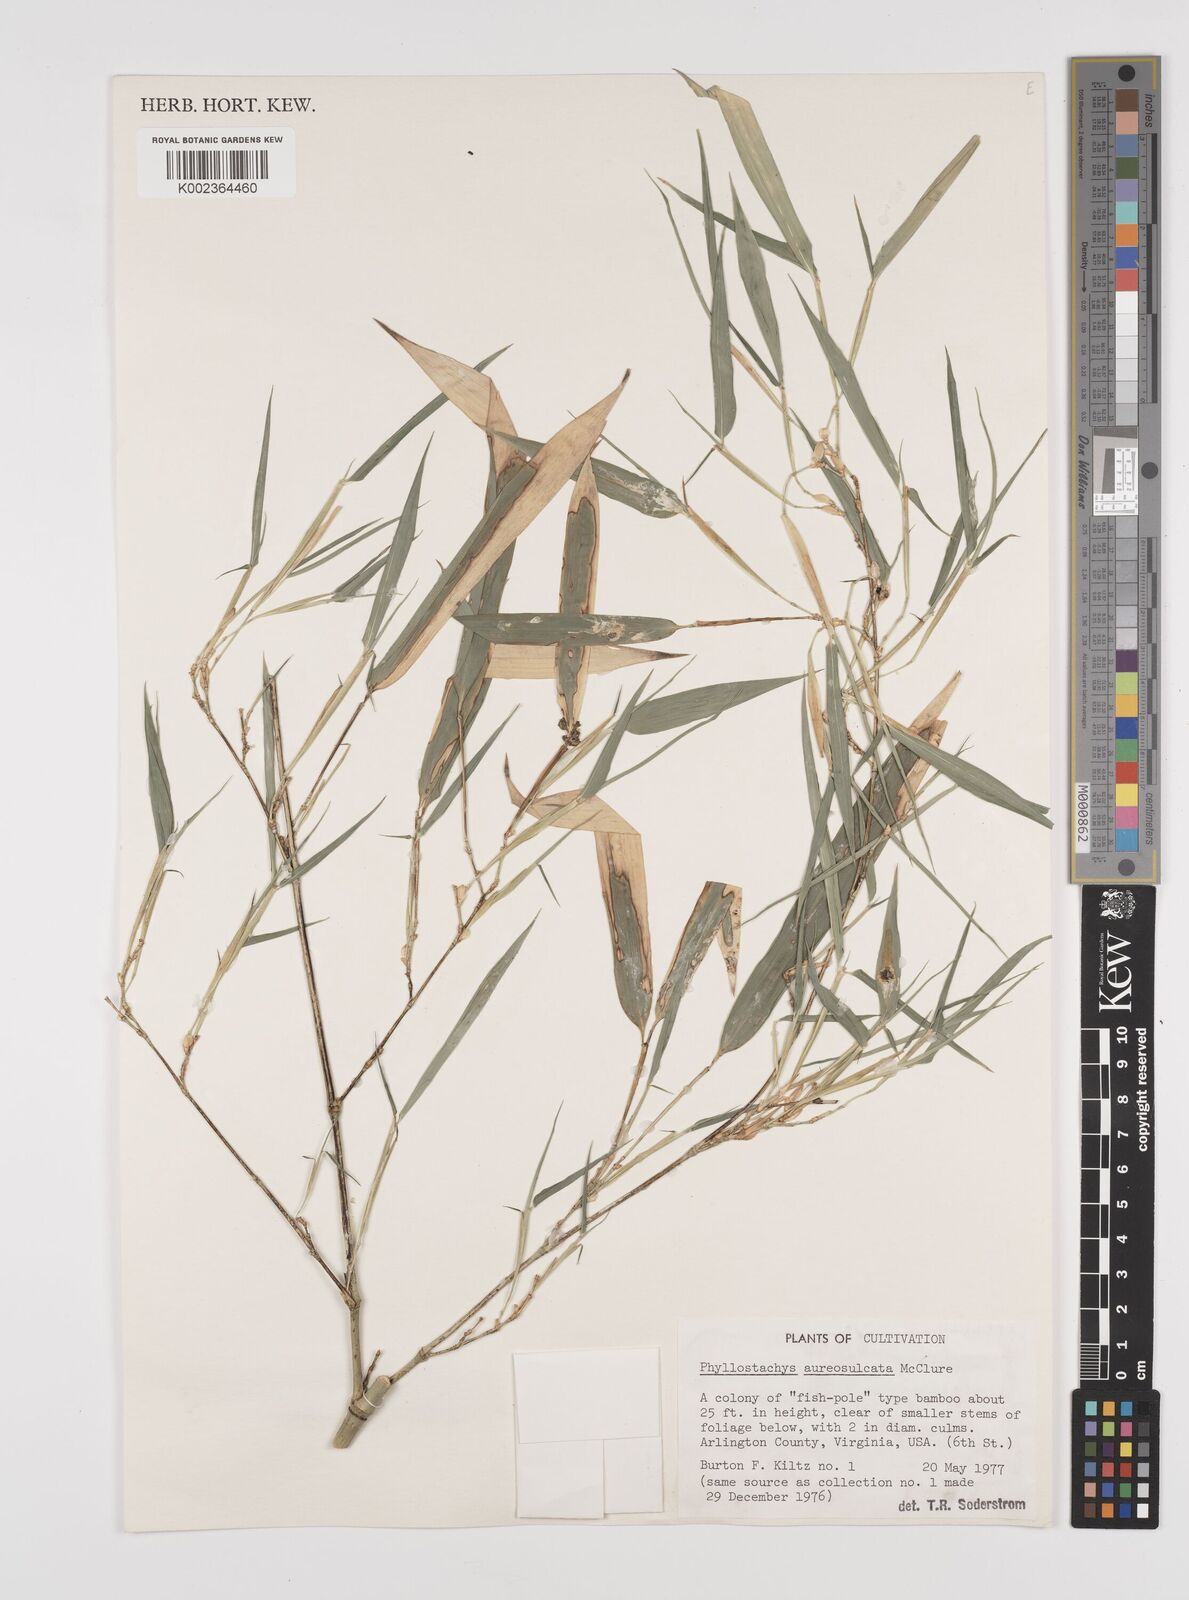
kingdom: Plantae
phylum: Tracheophyta
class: Liliopsida
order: Poales
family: Poaceae
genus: Phyllostachys
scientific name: Phyllostachys aureosulcata
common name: Yellow groove bamboo
